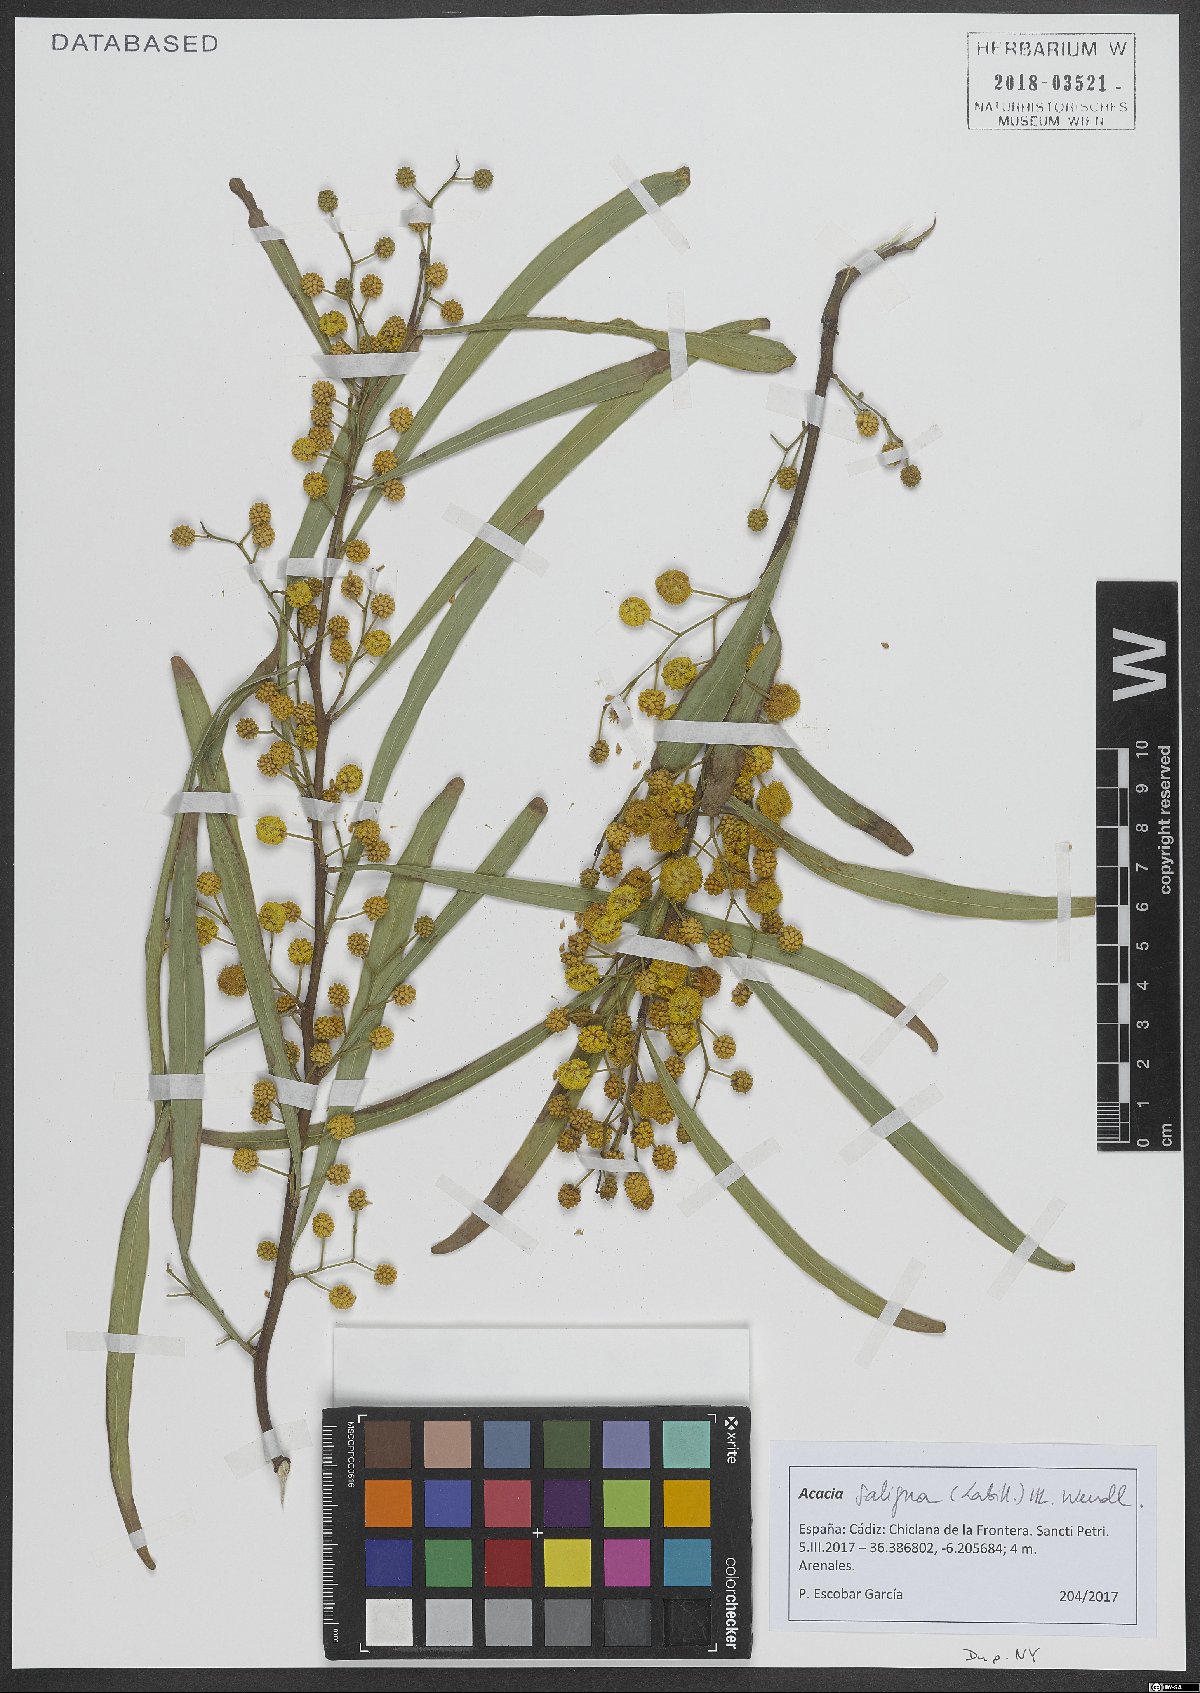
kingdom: Plantae
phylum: Tracheophyta
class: Magnoliopsida
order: Fabales
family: Fabaceae
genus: Acacia
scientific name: Acacia saligna
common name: Orange wattle
